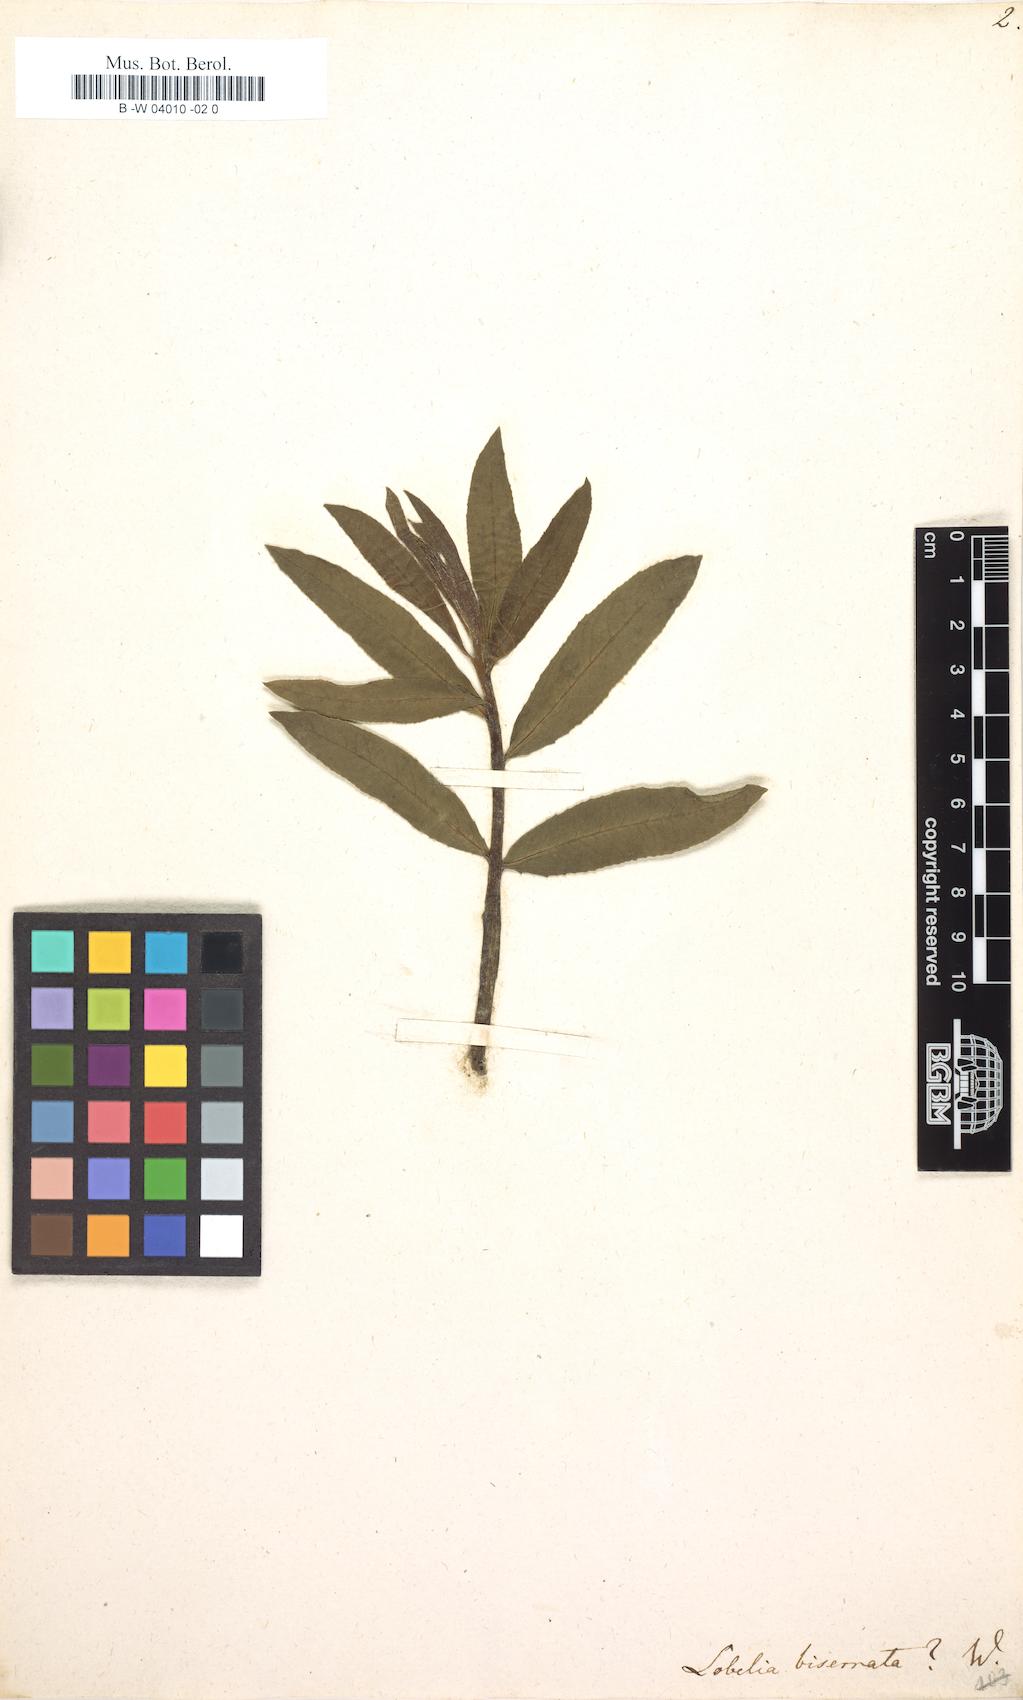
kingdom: Plantae
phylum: Tracheophyta
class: Magnoliopsida
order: Asterales
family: Campanulaceae
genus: Lobelia
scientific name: Lobelia biserrata
